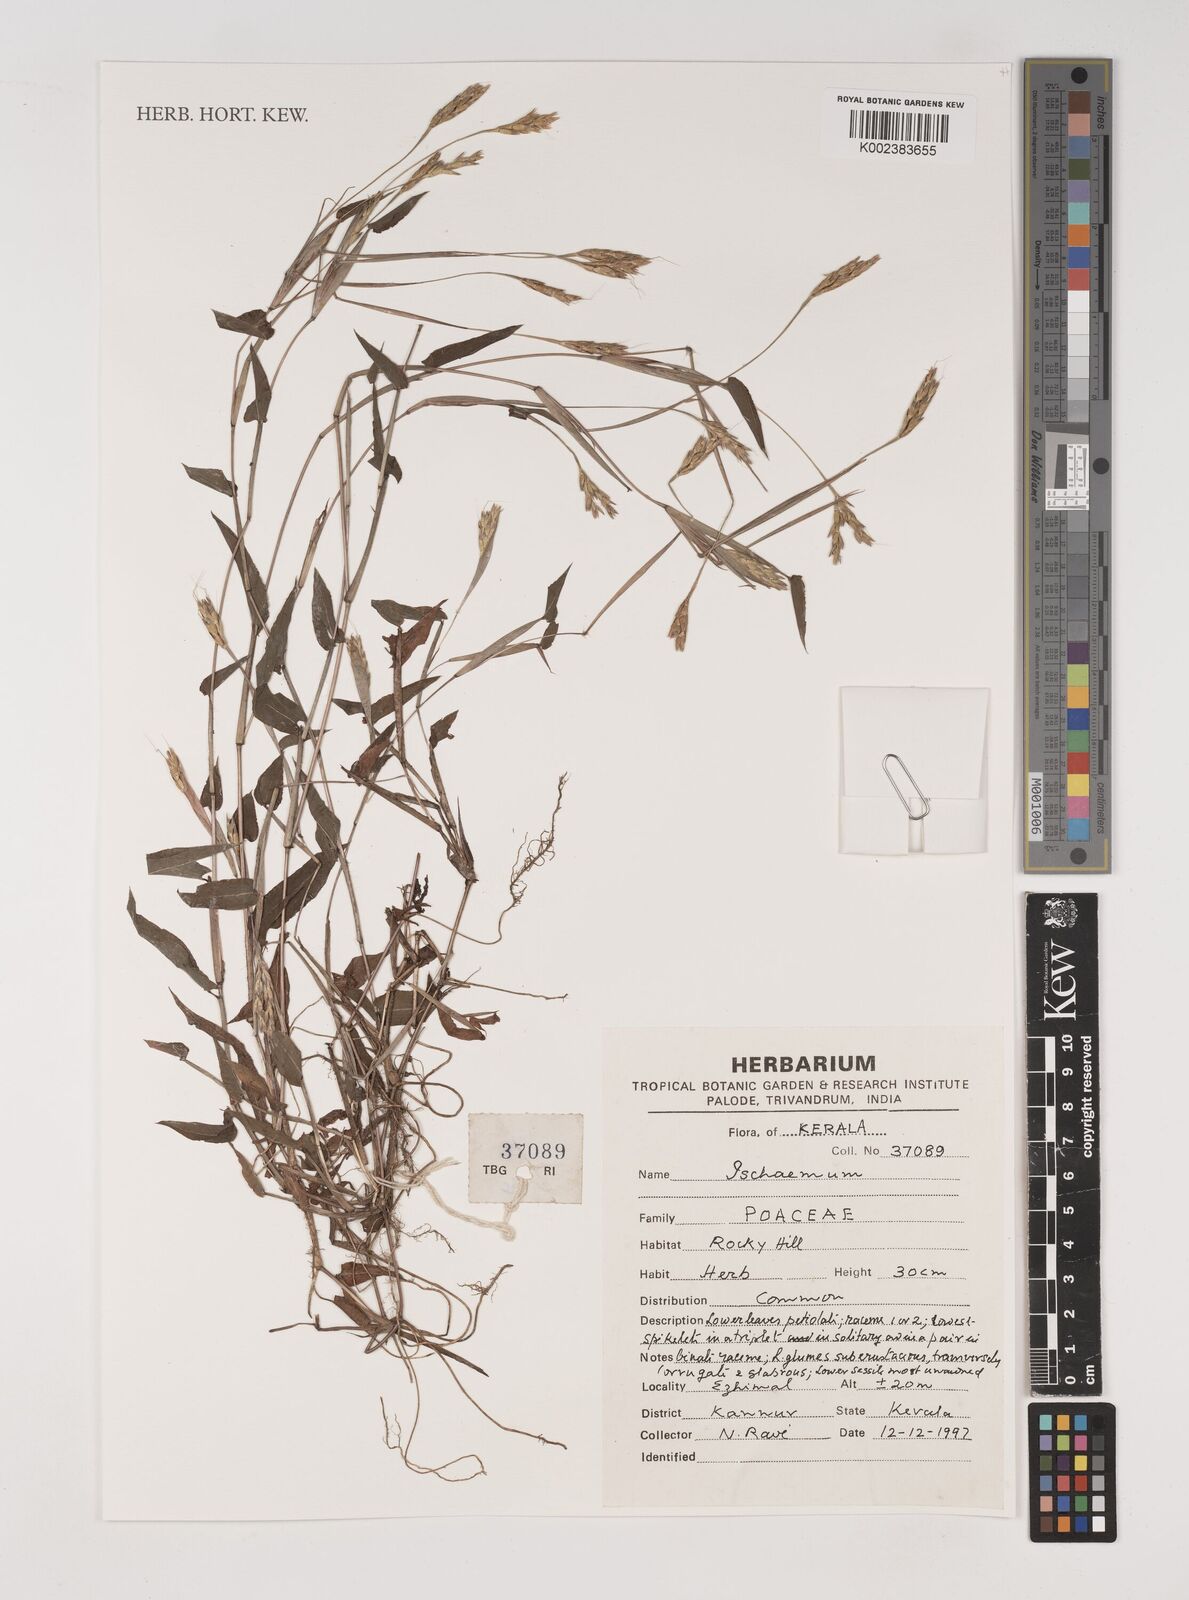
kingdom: Plantae
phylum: Tracheophyta
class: Liliopsida
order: Poales
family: Poaceae
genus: Ischaemum
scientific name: Ischaemum
